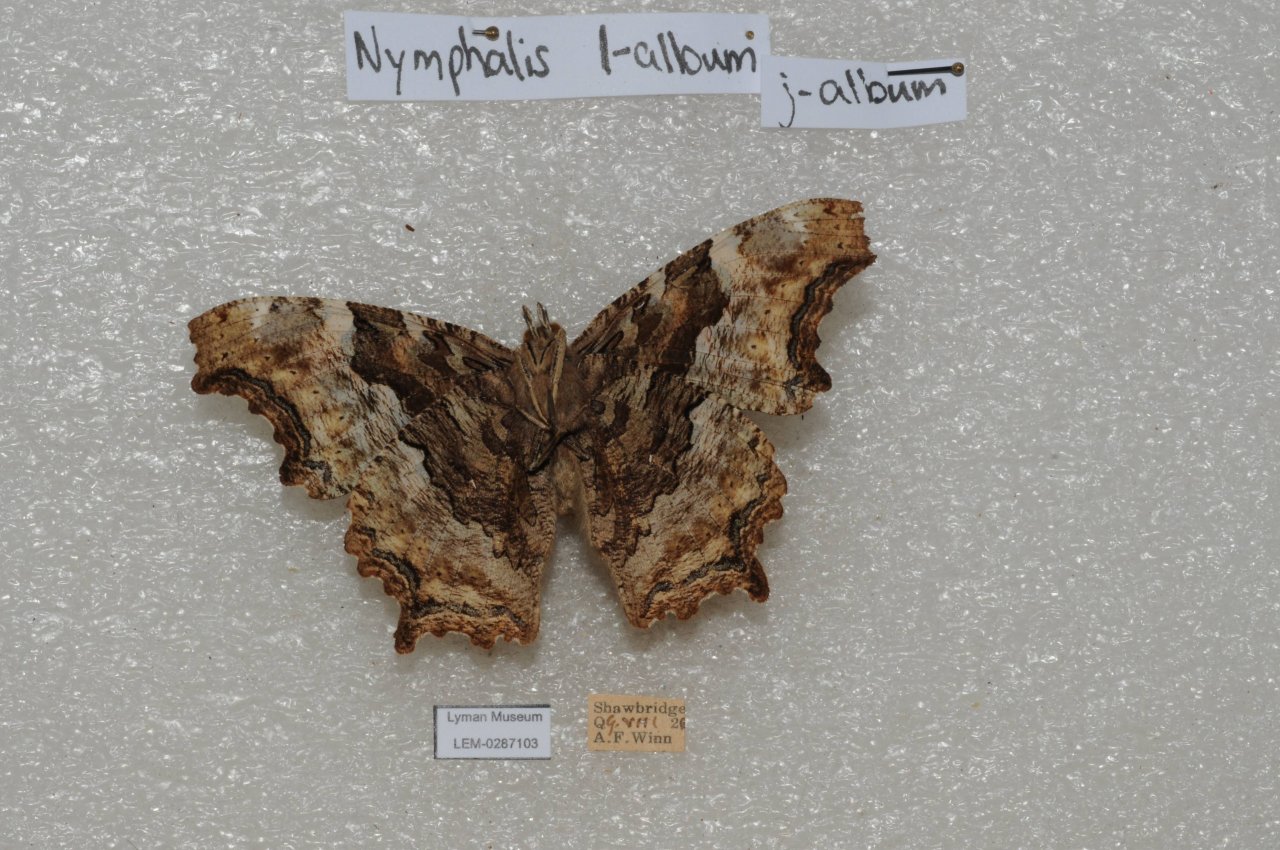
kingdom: Animalia
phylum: Arthropoda
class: Insecta
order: Lepidoptera
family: Nymphalidae
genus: Polygonia
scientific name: Polygonia vaualbum
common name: Compton Tortoiseshell
